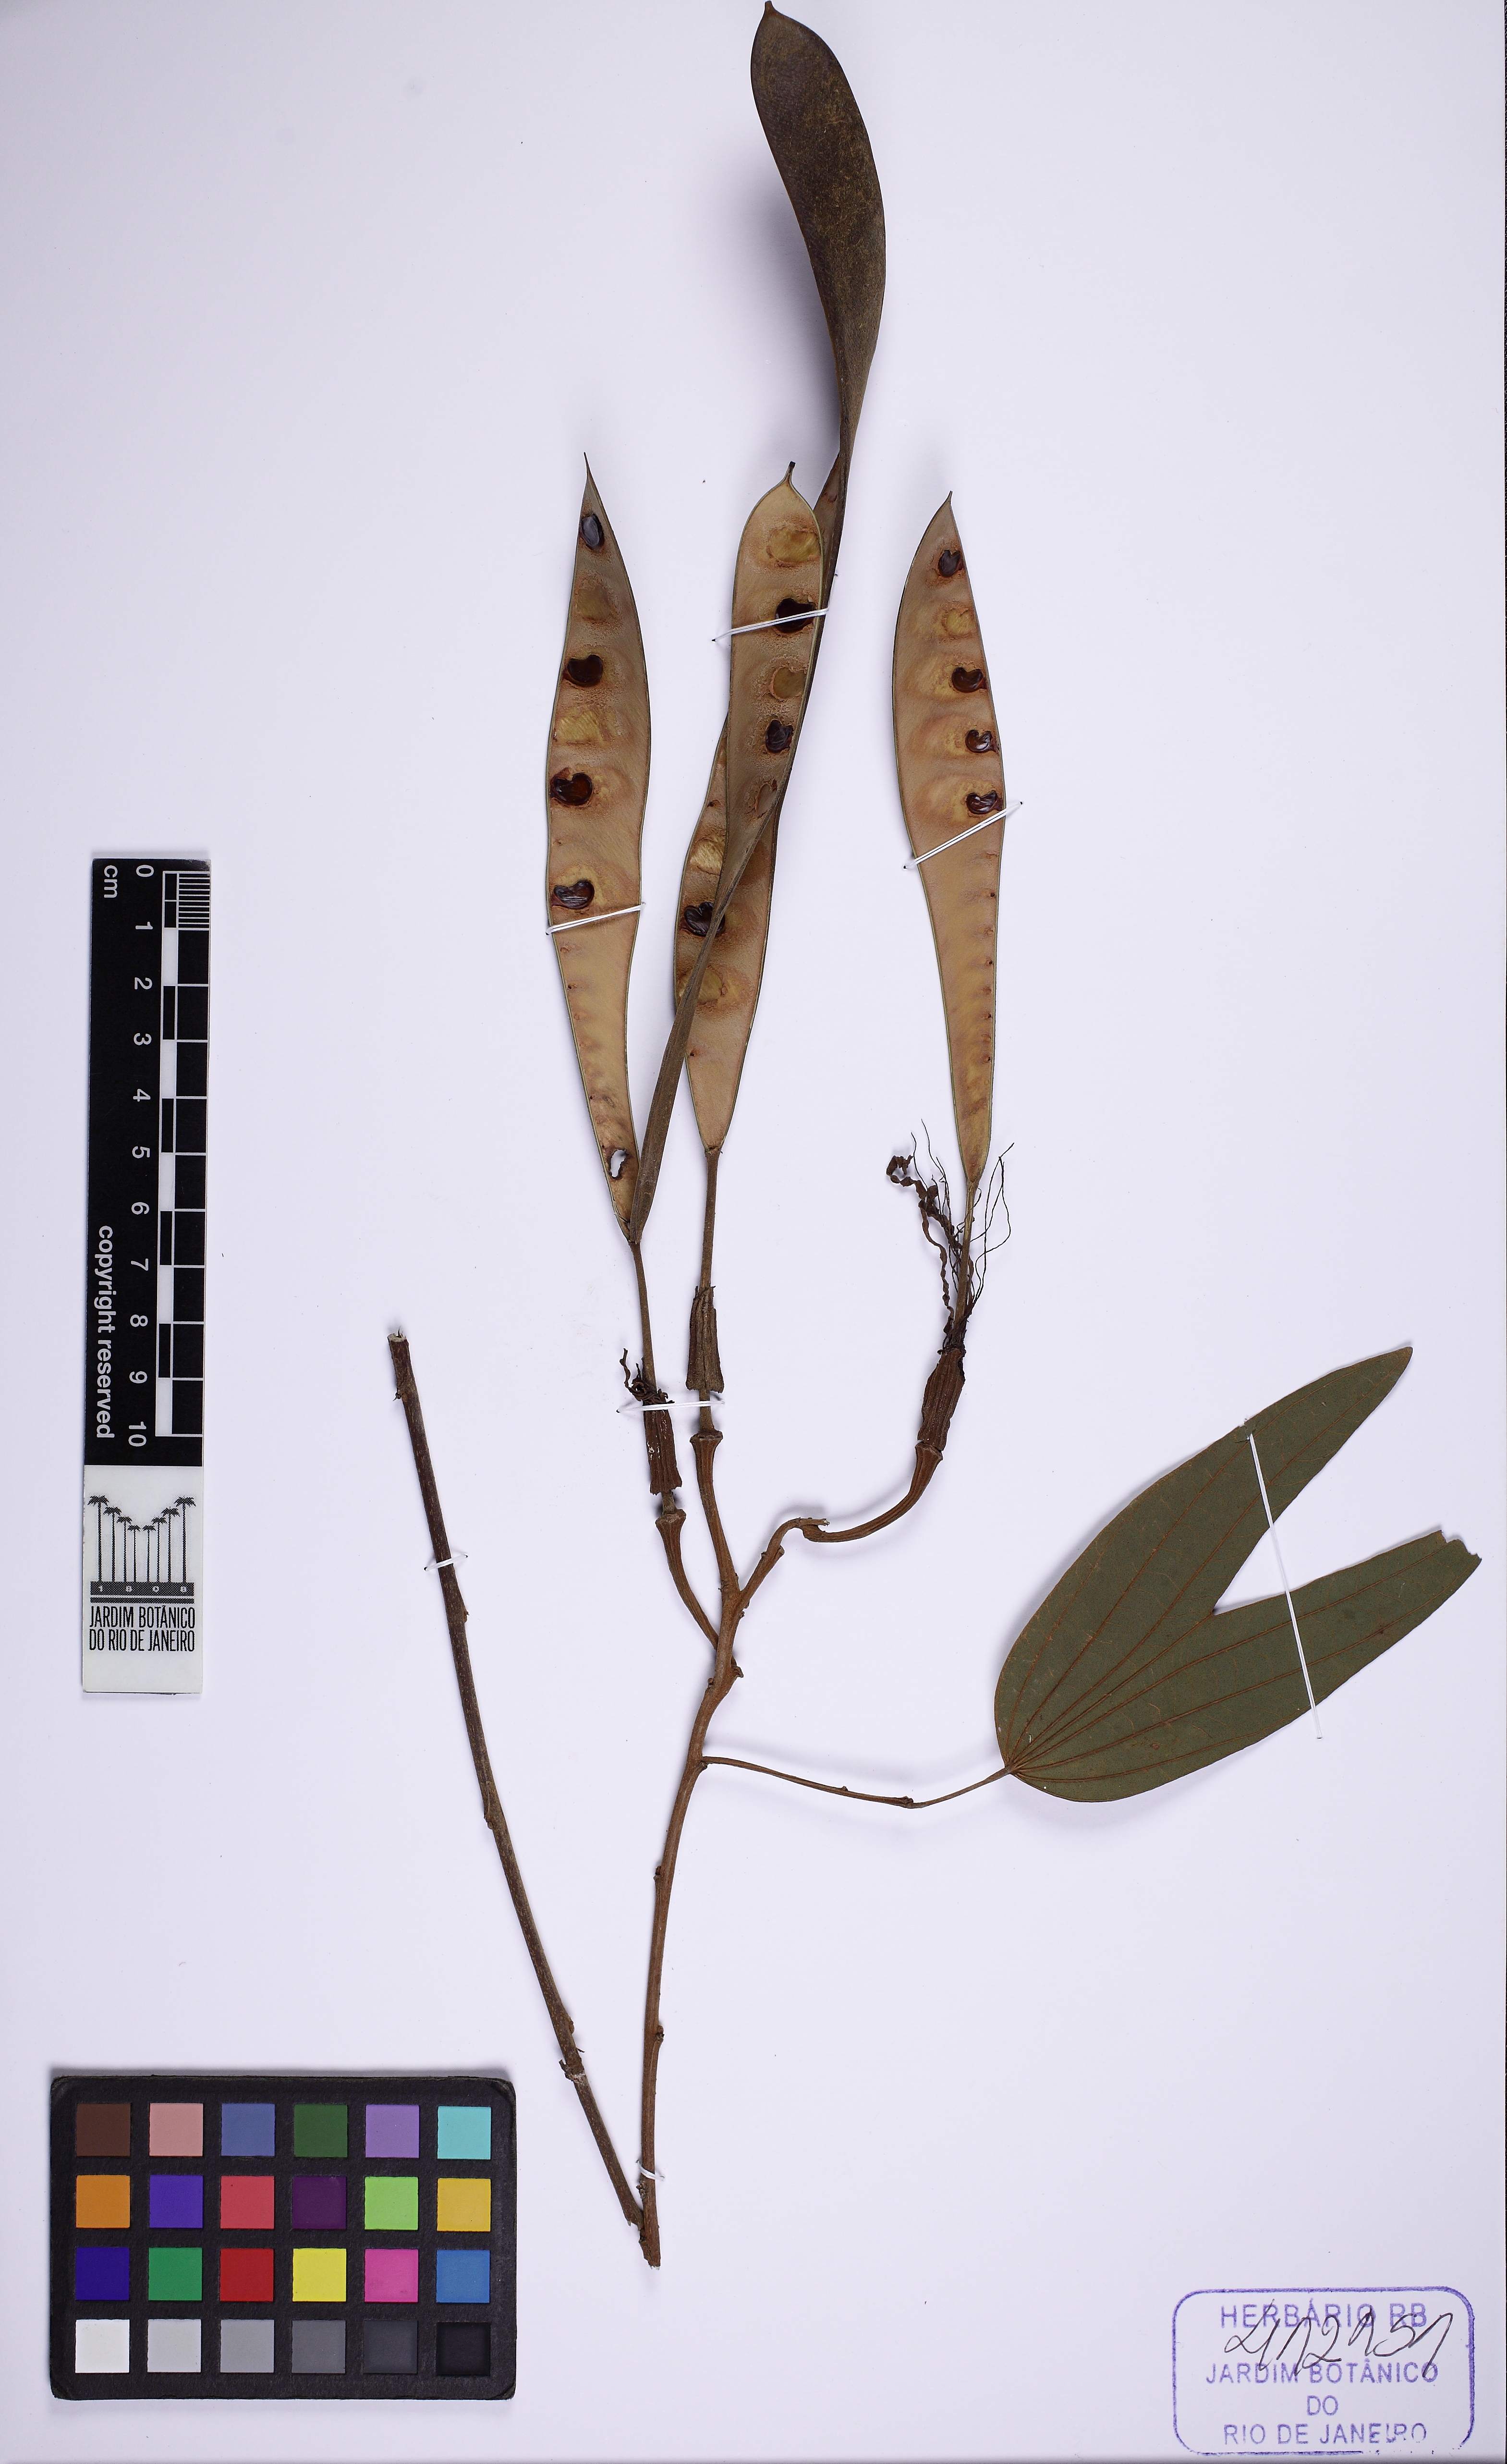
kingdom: Plantae
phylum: Tracheophyta
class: Magnoliopsida
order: Fabales
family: Fabaceae
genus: Bauhinia
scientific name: Bauhinia longifolia
